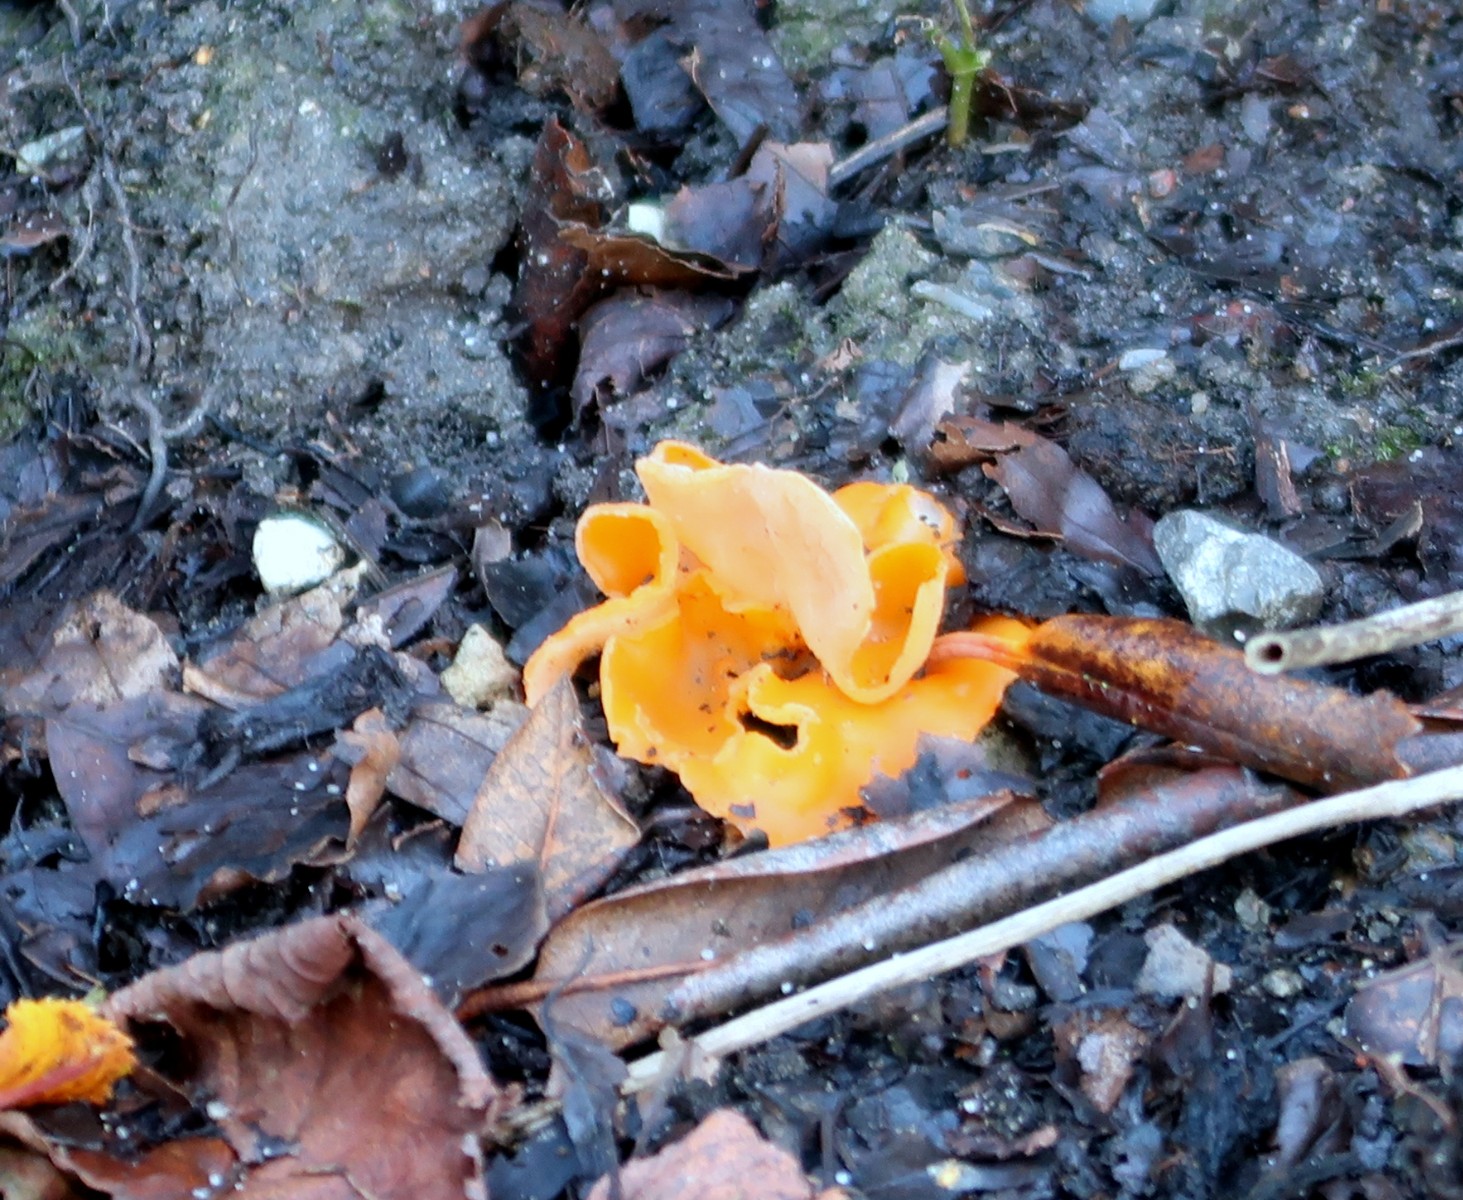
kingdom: Fungi
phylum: Ascomycota
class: Pezizomycetes
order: Pezizales
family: Pyronemataceae
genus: Aleuria
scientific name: Aleuria aurantia
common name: almindelig orangebæger
